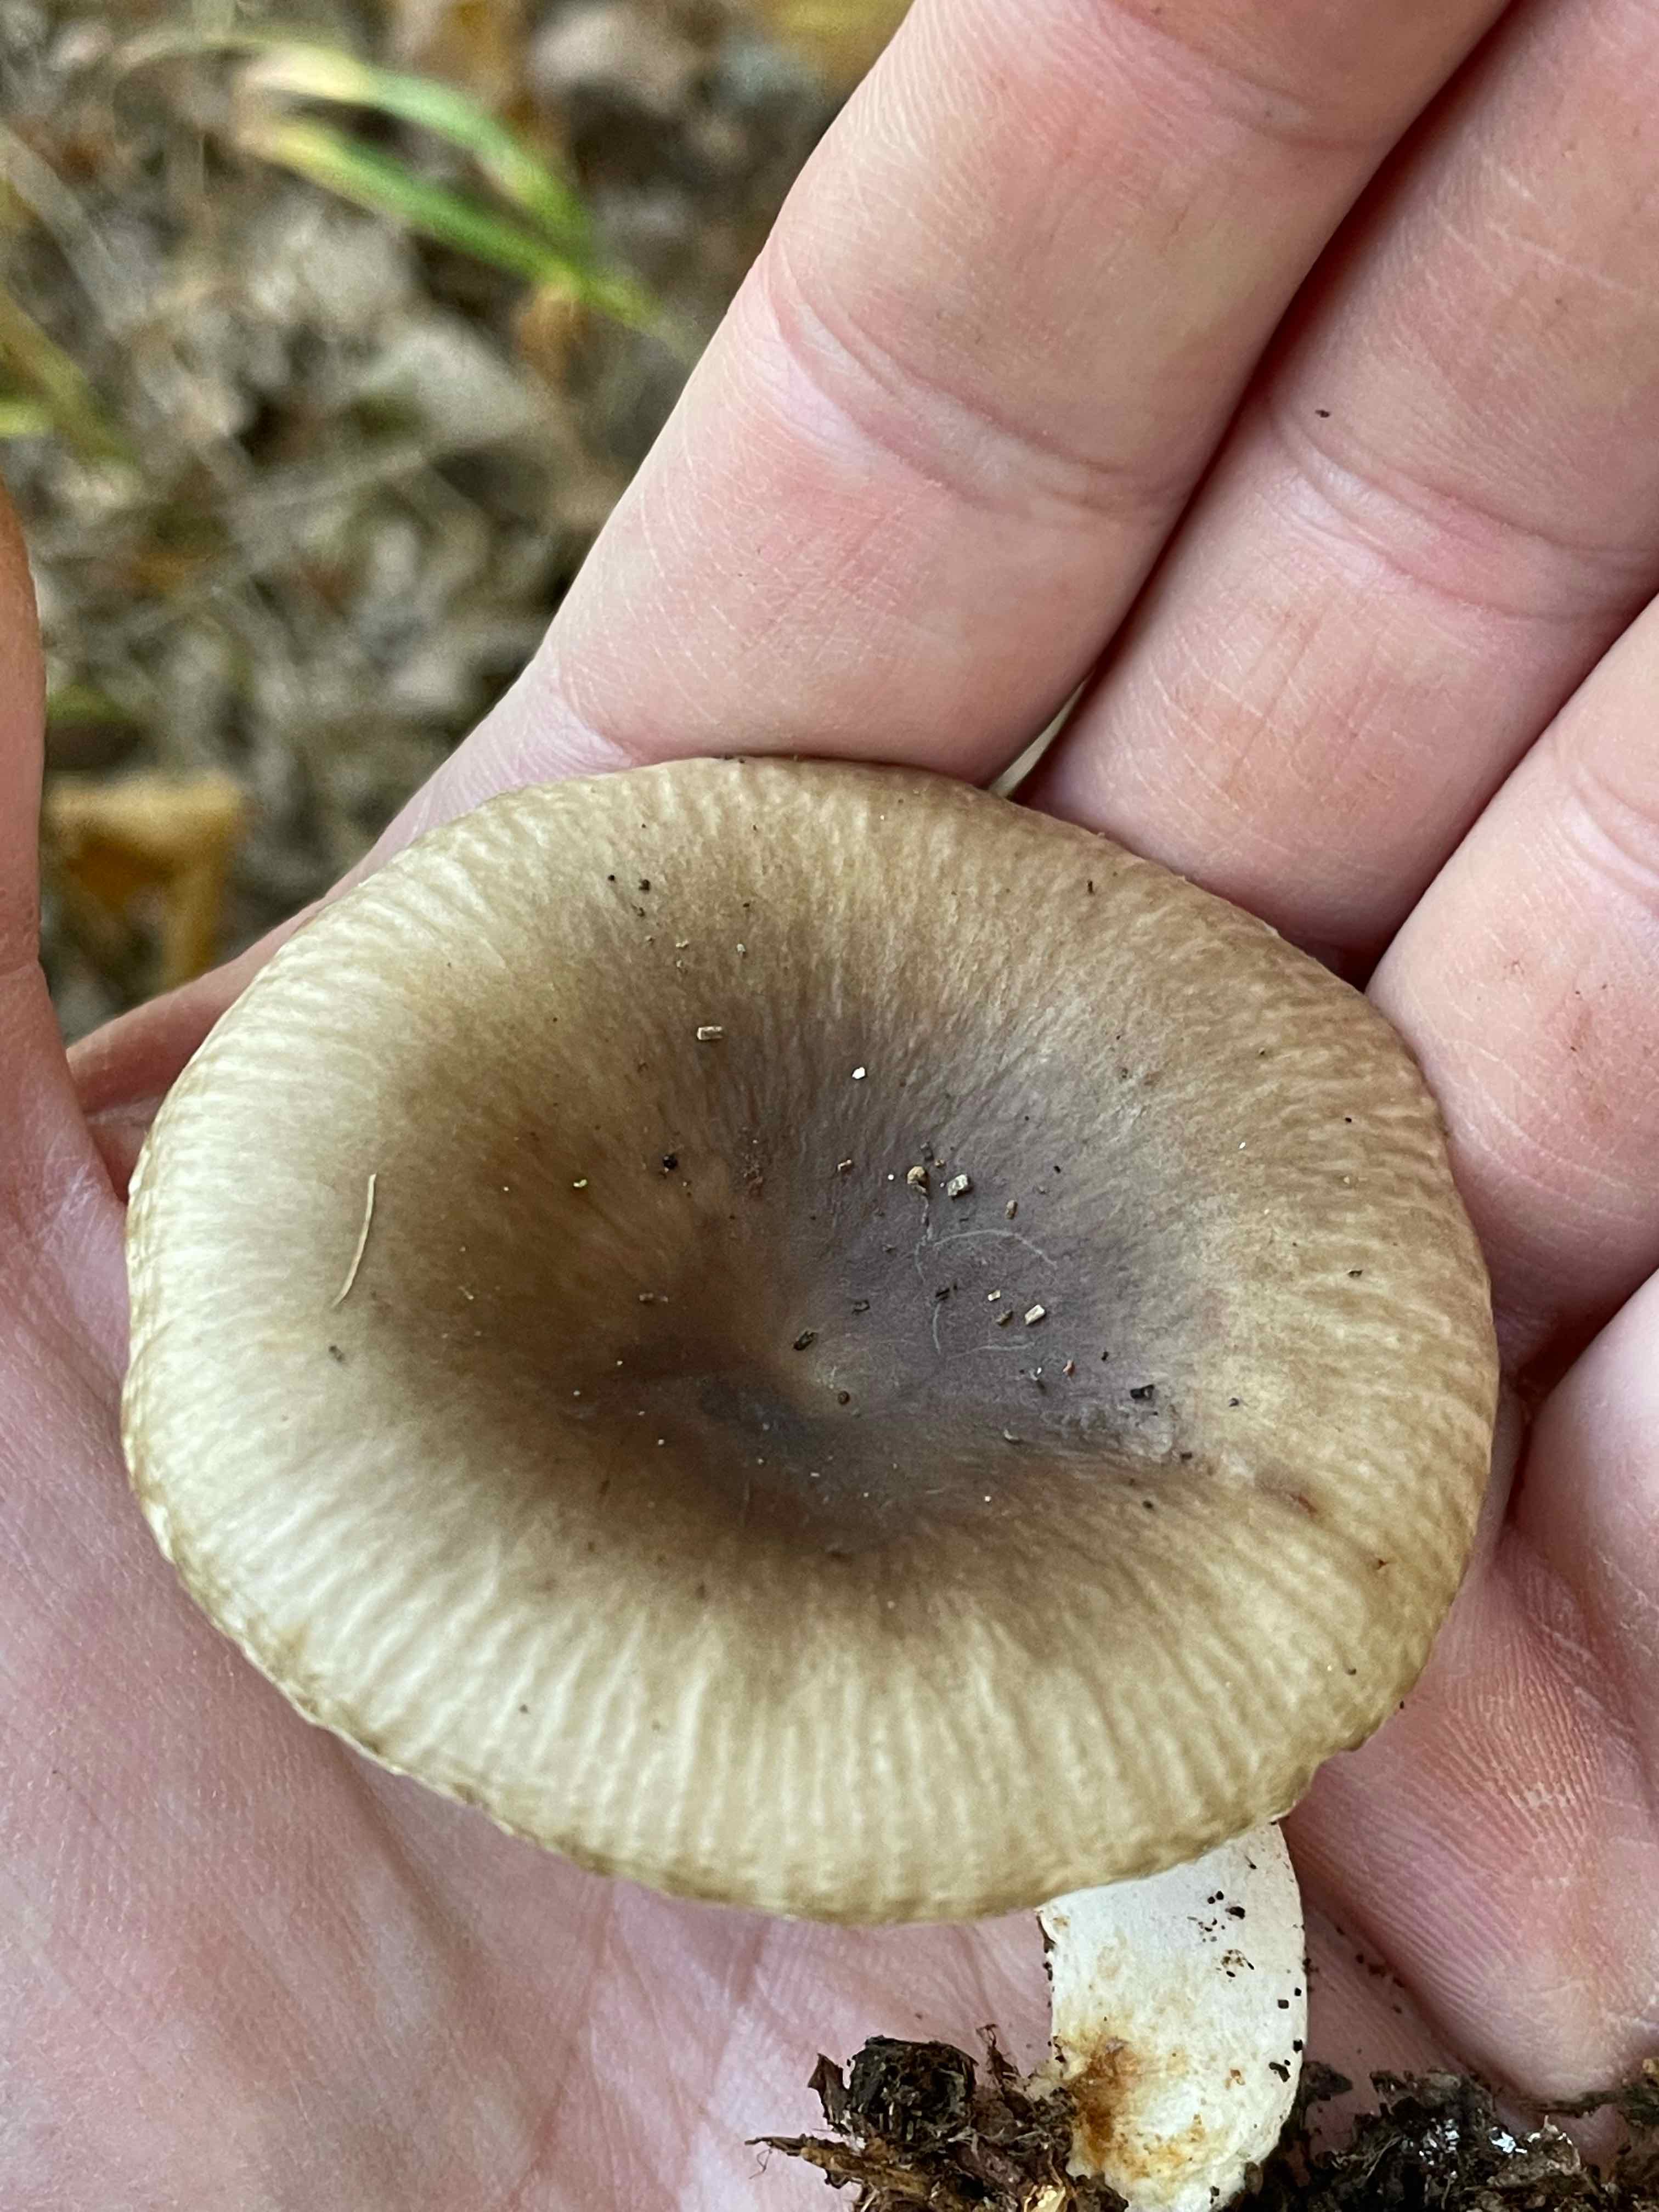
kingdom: Fungi
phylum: Basidiomycota
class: Agaricomycetes
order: Russulales
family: Russulaceae
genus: Russula
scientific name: Russula amoenolens
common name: skarp kam-skørhat
